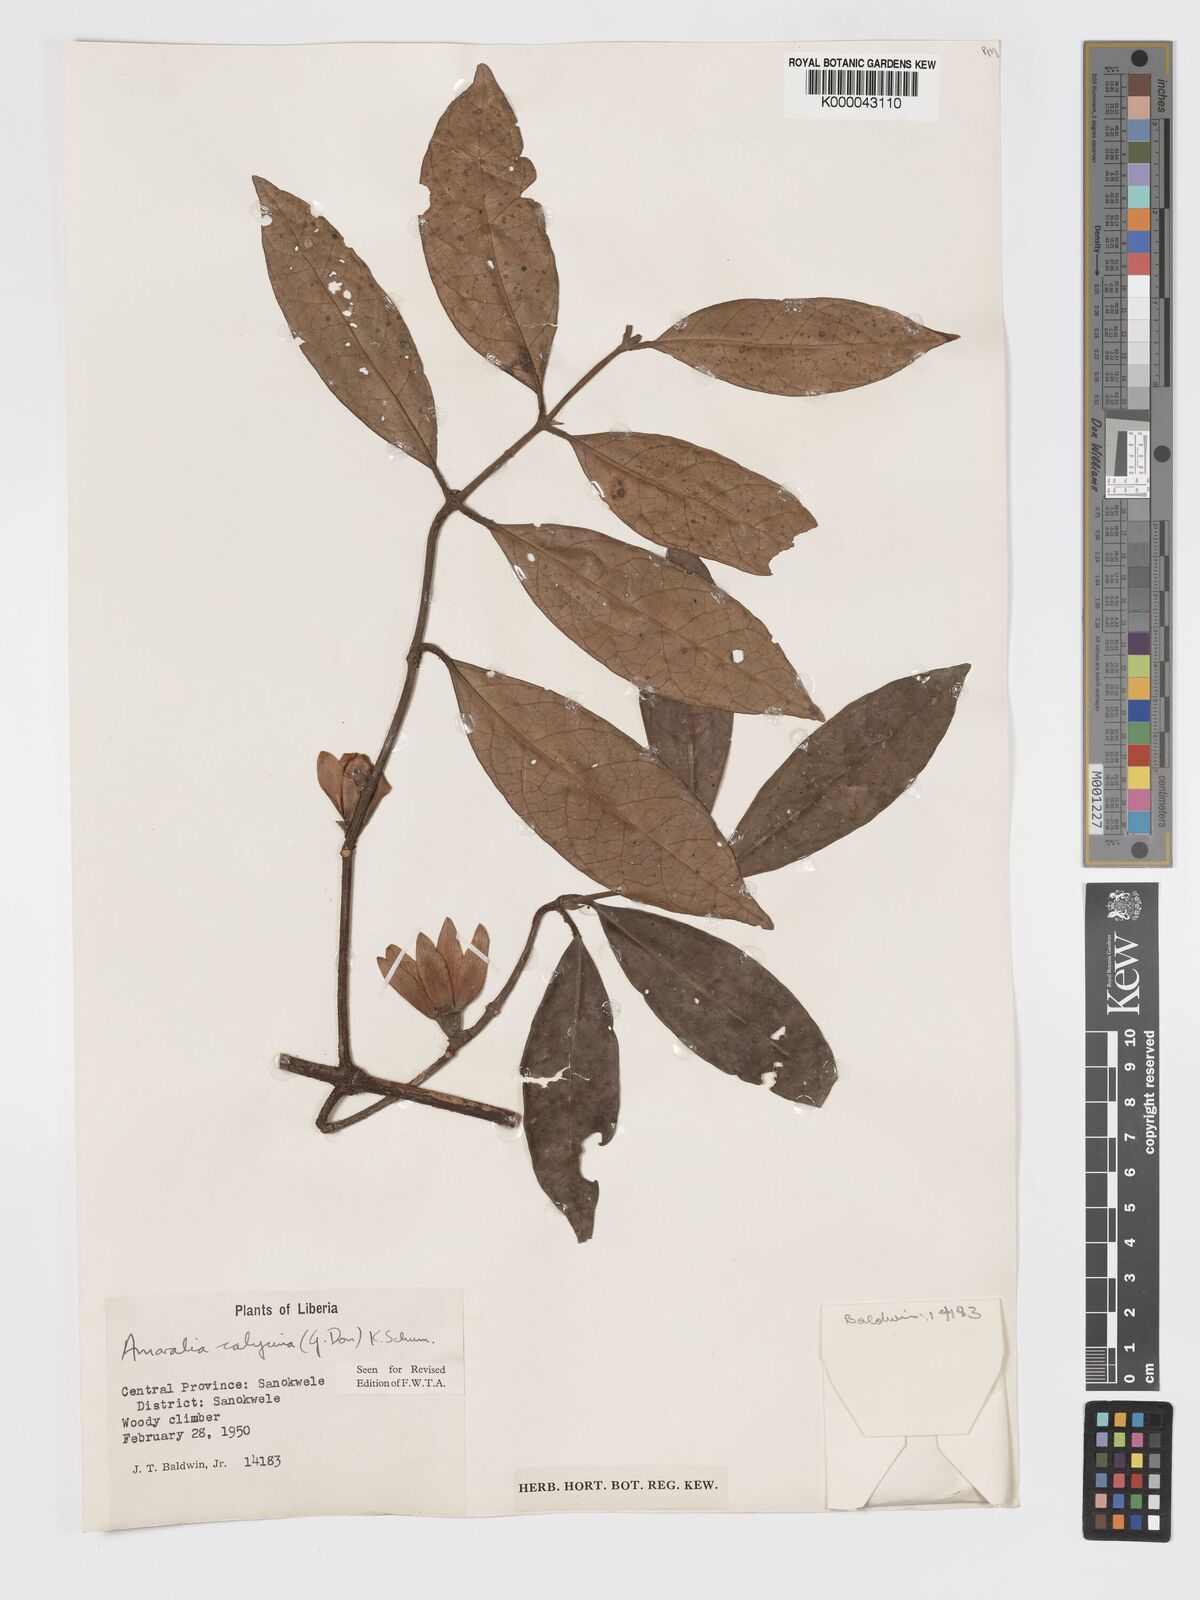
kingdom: Plantae
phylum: Tracheophyta
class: Magnoliopsida
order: Gentianales
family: Rubiaceae
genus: Sherbournia
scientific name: Sherbournia calycina
